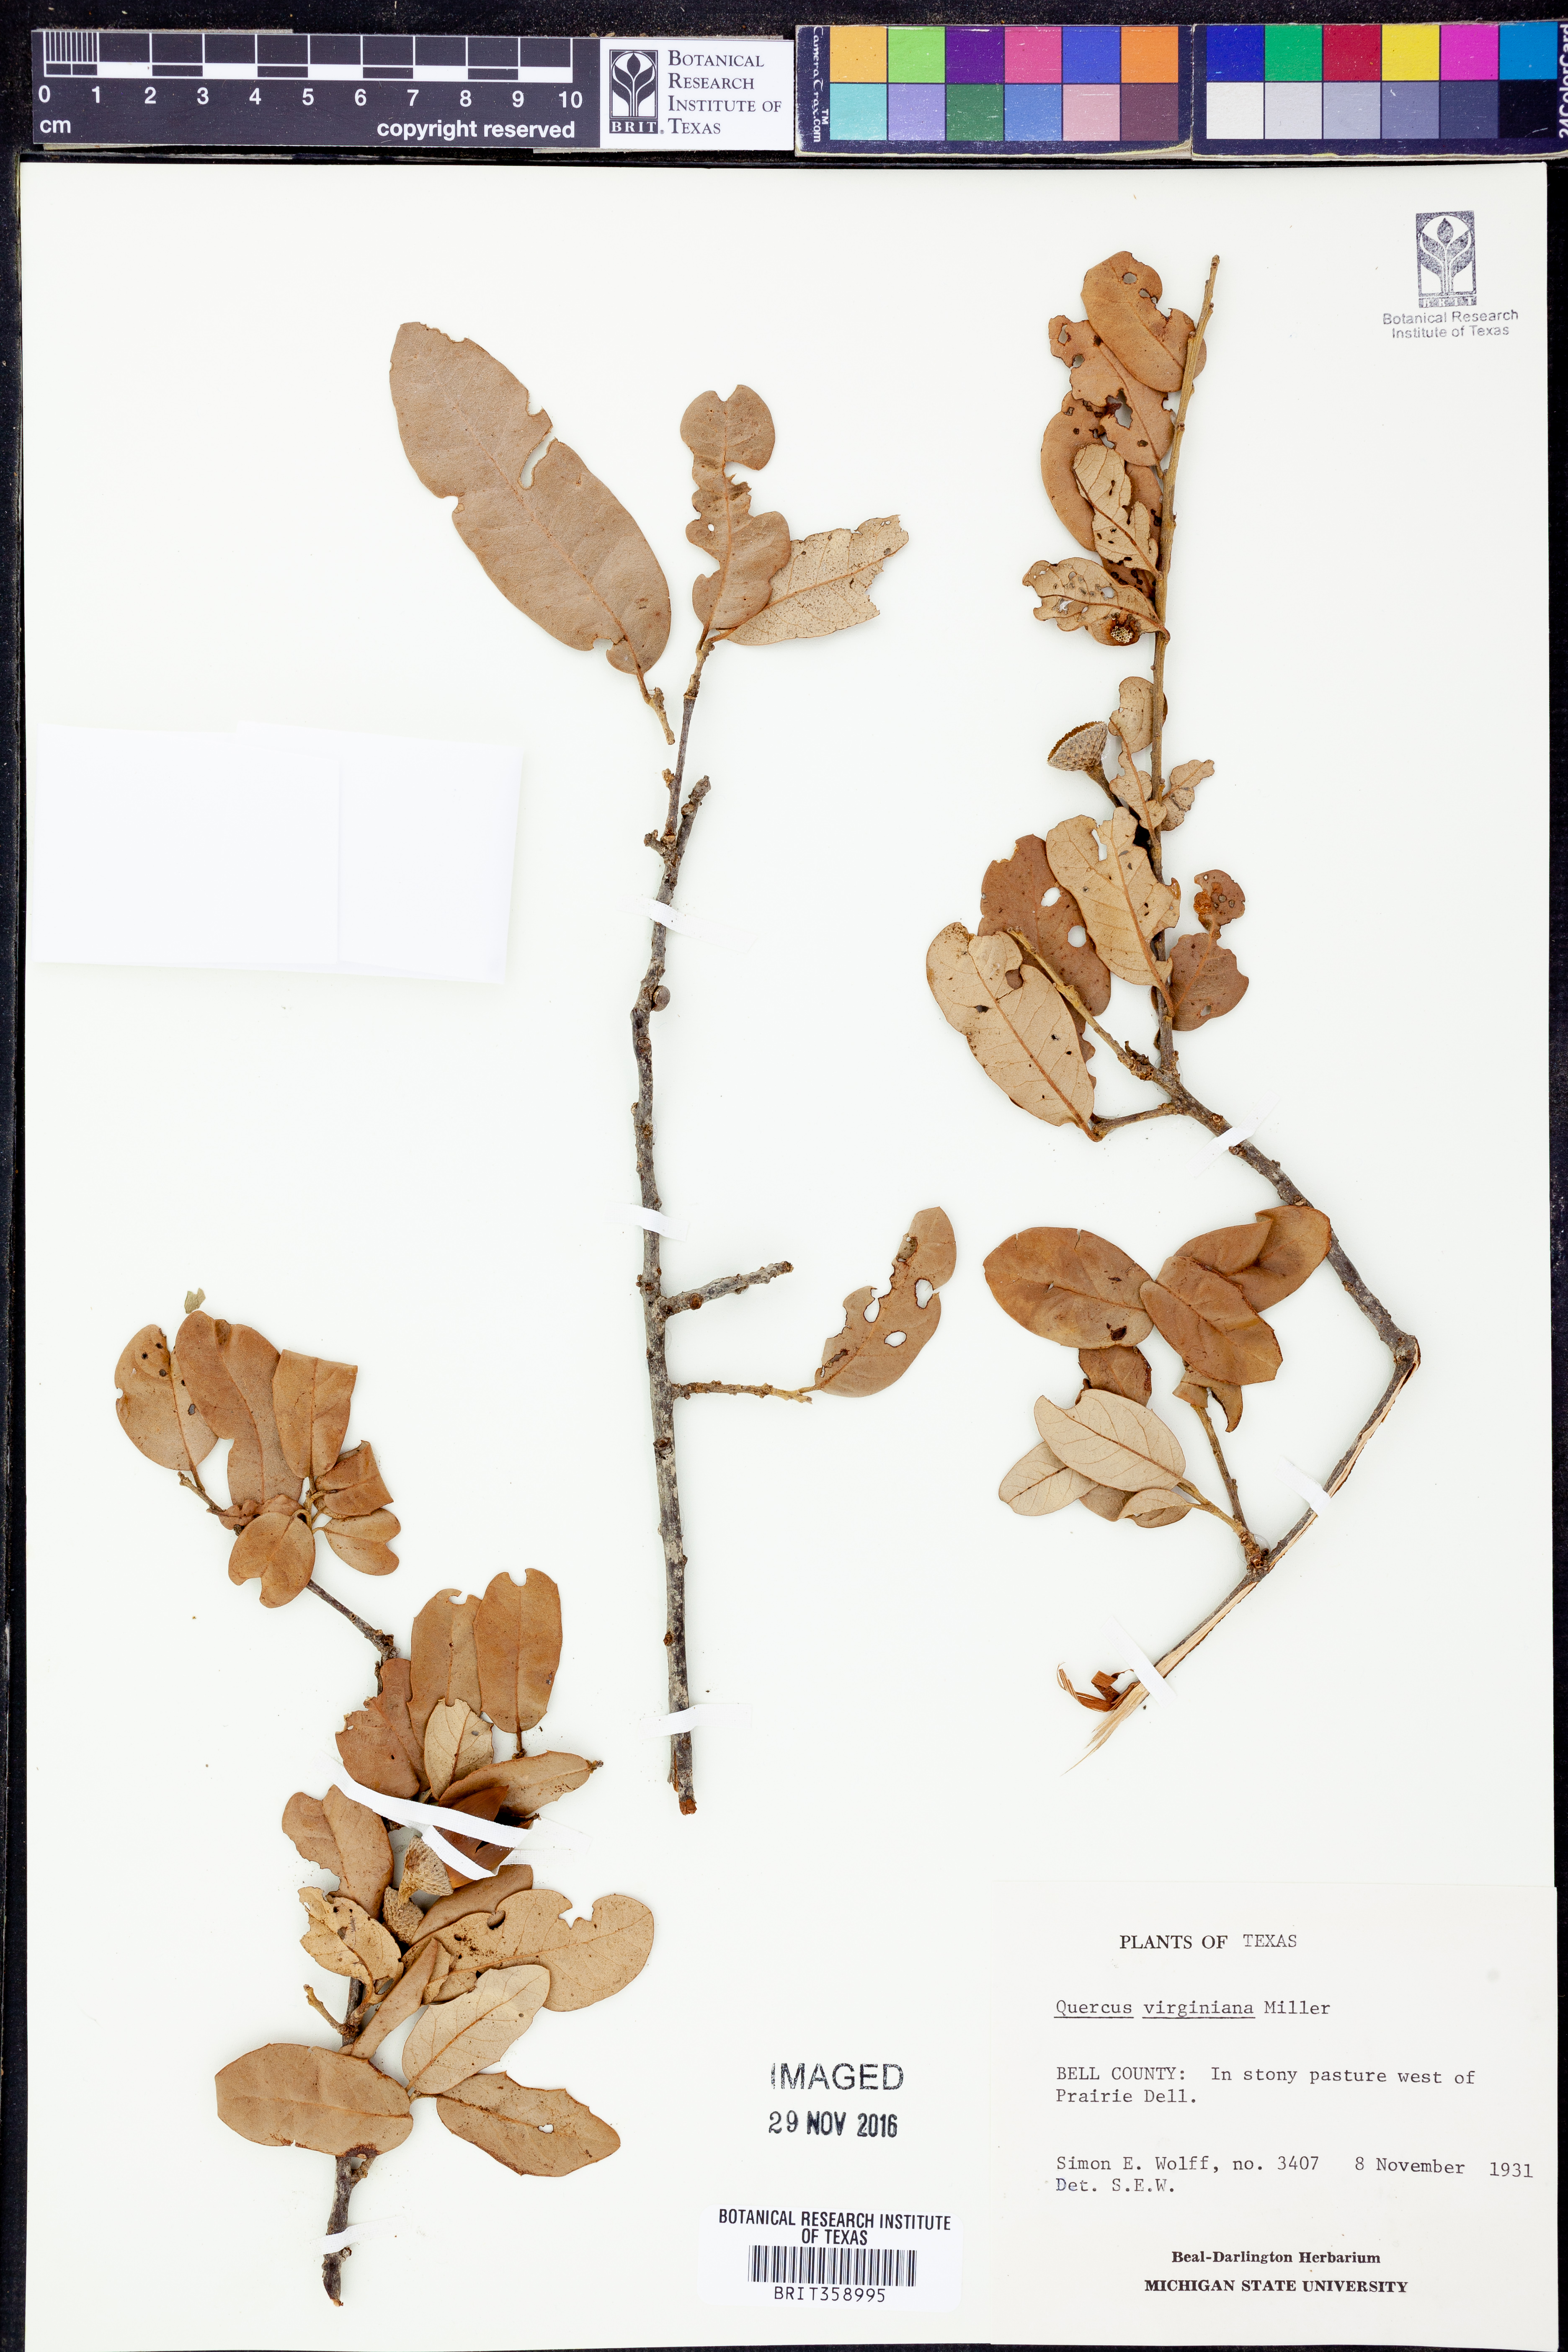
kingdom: Plantae
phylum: Tracheophyta
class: Magnoliopsida
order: Fagales
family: Fagaceae
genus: Quercus
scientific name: Quercus virginiana
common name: Southern live oak
